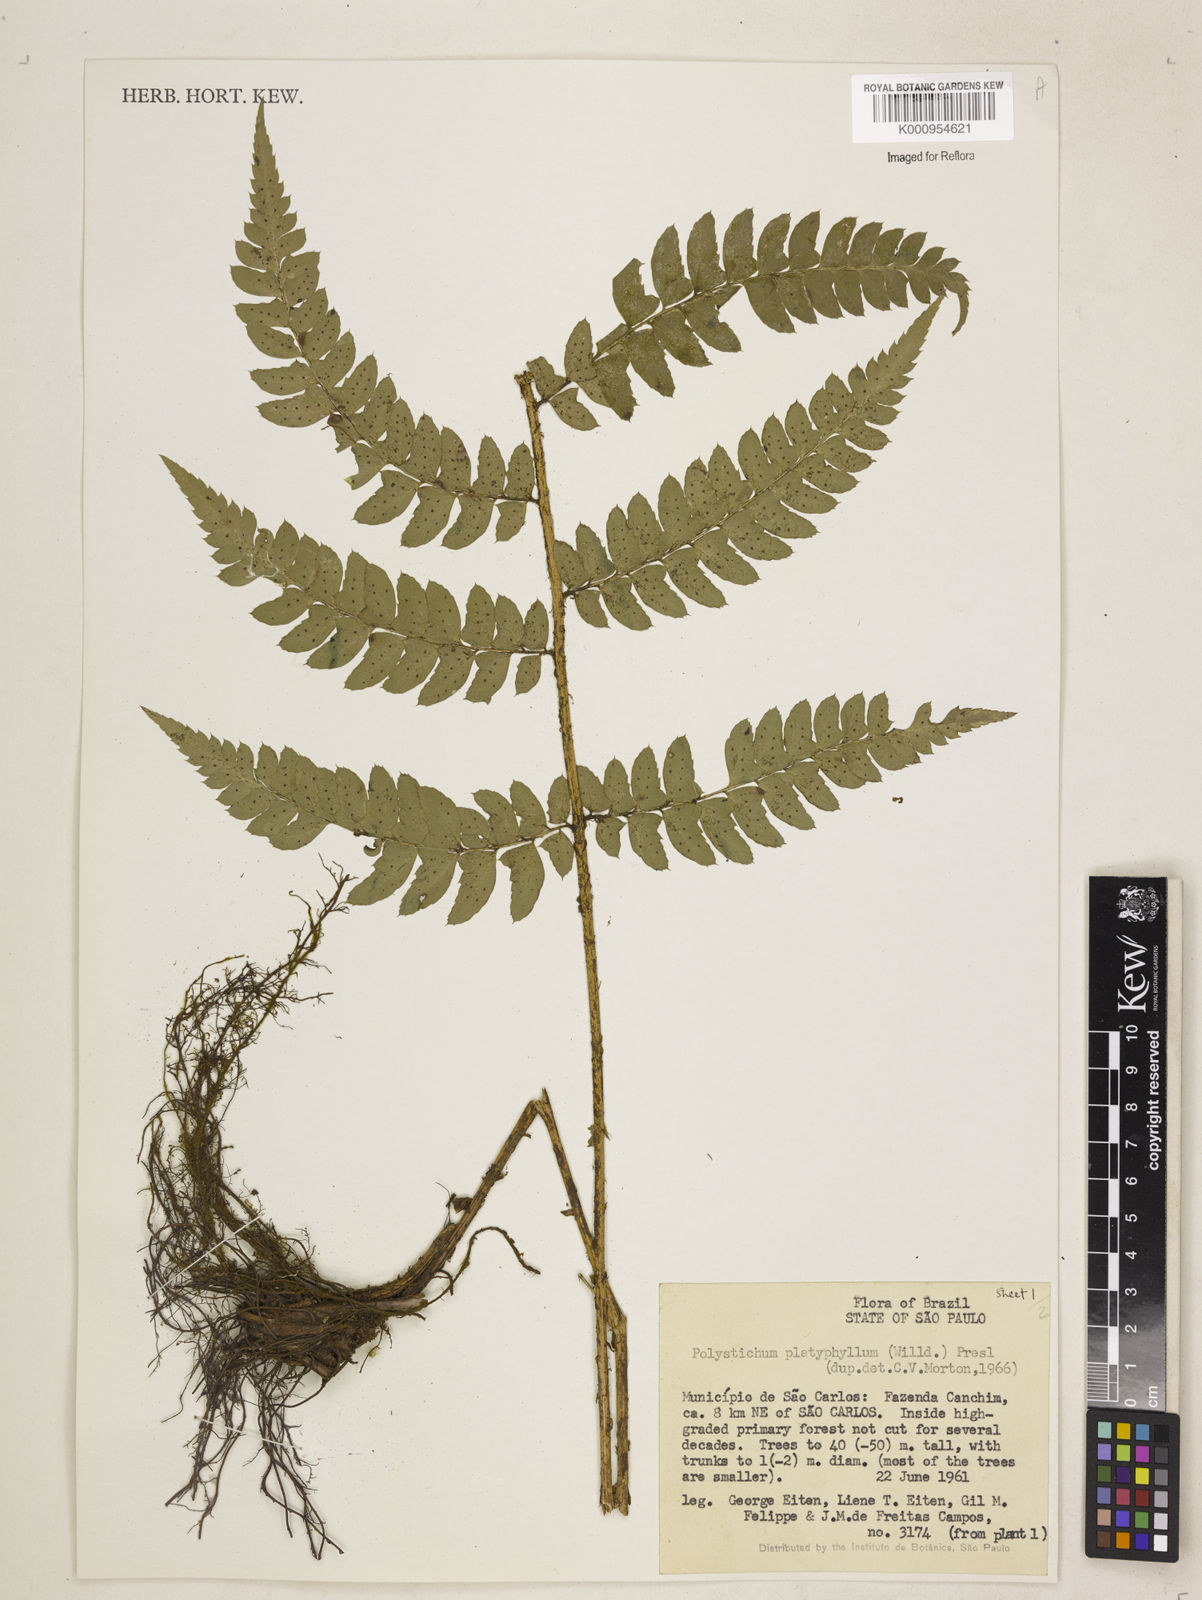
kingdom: Plantae
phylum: Tracheophyta
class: Polypodiopsida
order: Polypodiales
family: Dryopteridaceae
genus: Polystichum
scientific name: Polystichum platyphyllum
